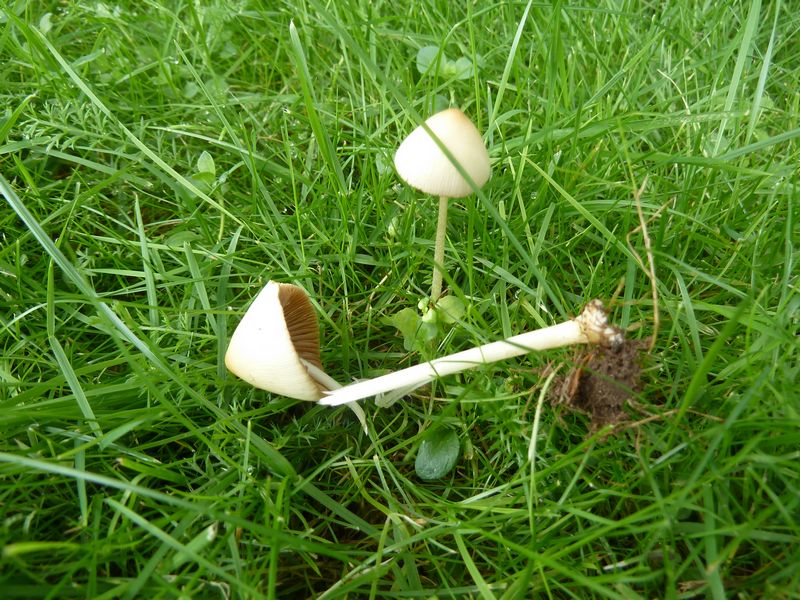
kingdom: Fungi
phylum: Basidiomycota
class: Agaricomycetes
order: Agaricales
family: Bolbitiaceae
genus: Conocybe
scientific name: Conocybe apala
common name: mælkehvid keglehat
